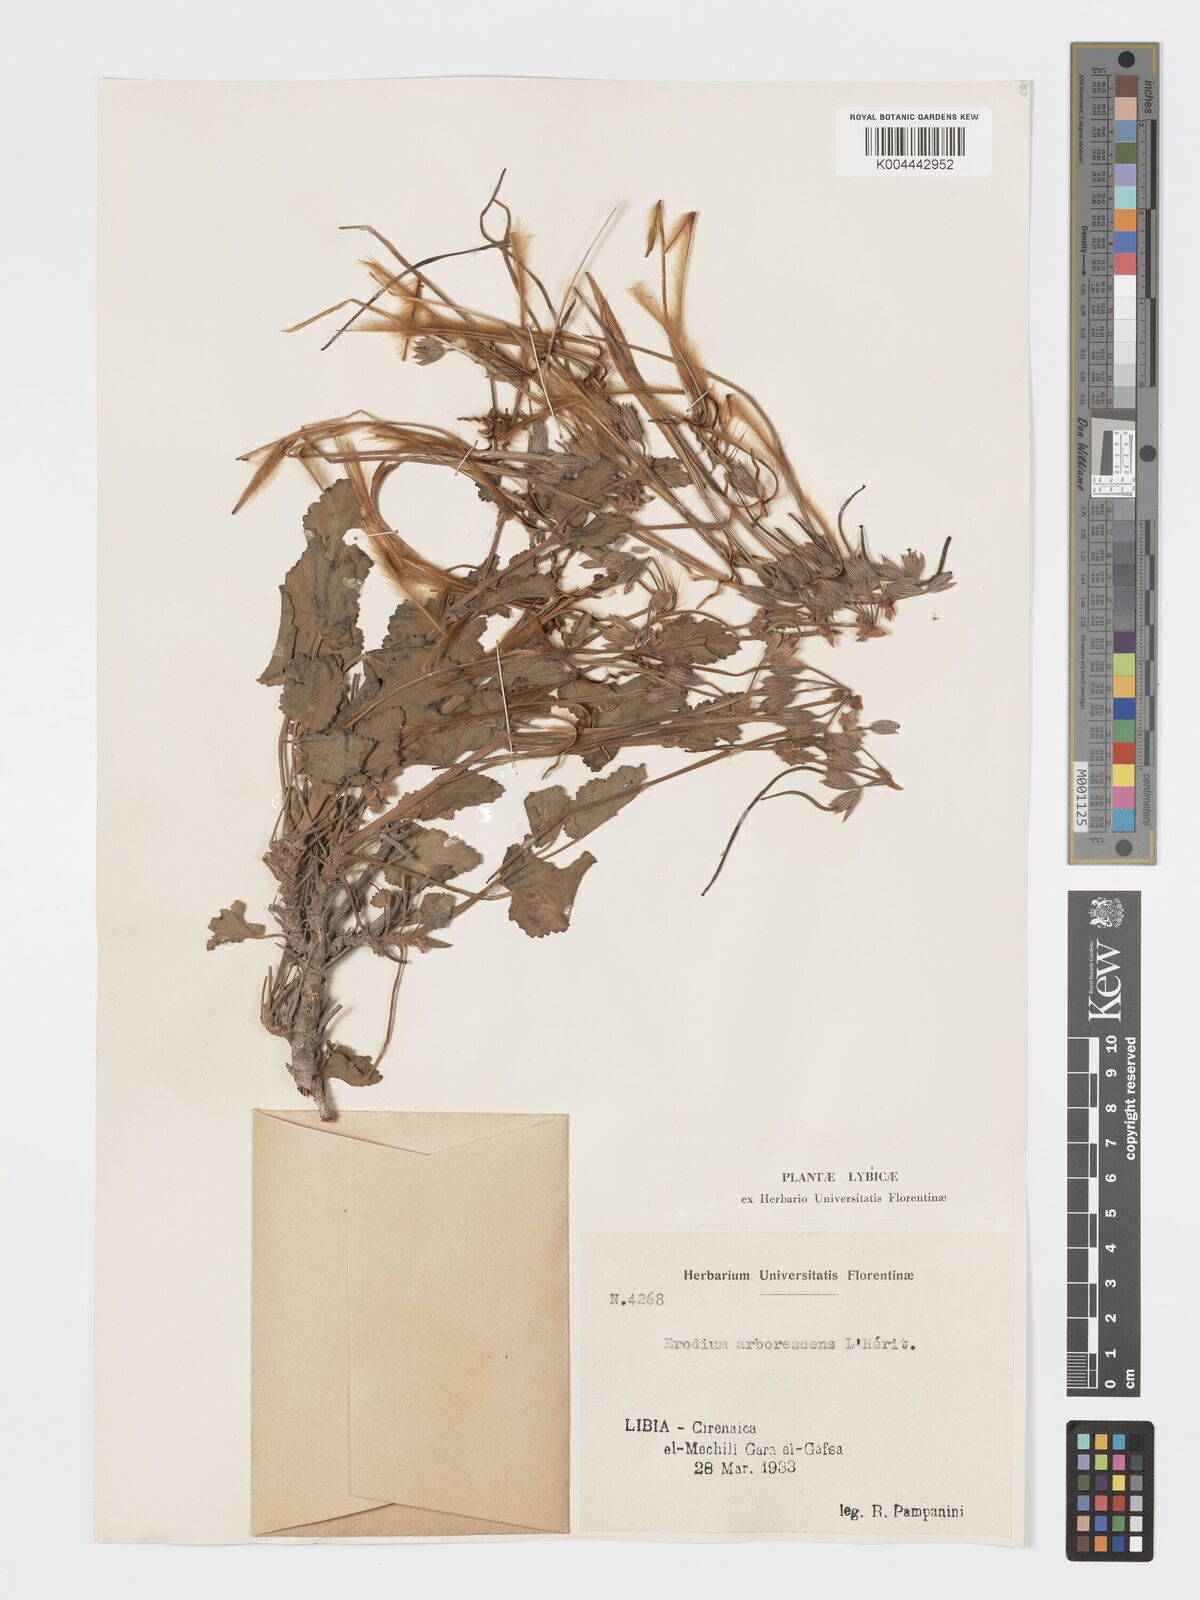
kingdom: Plantae
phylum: Tracheophyta
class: Magnoliopsida
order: Geraniales
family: Geraniaceae
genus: Erodium
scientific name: Erodium arborescens
